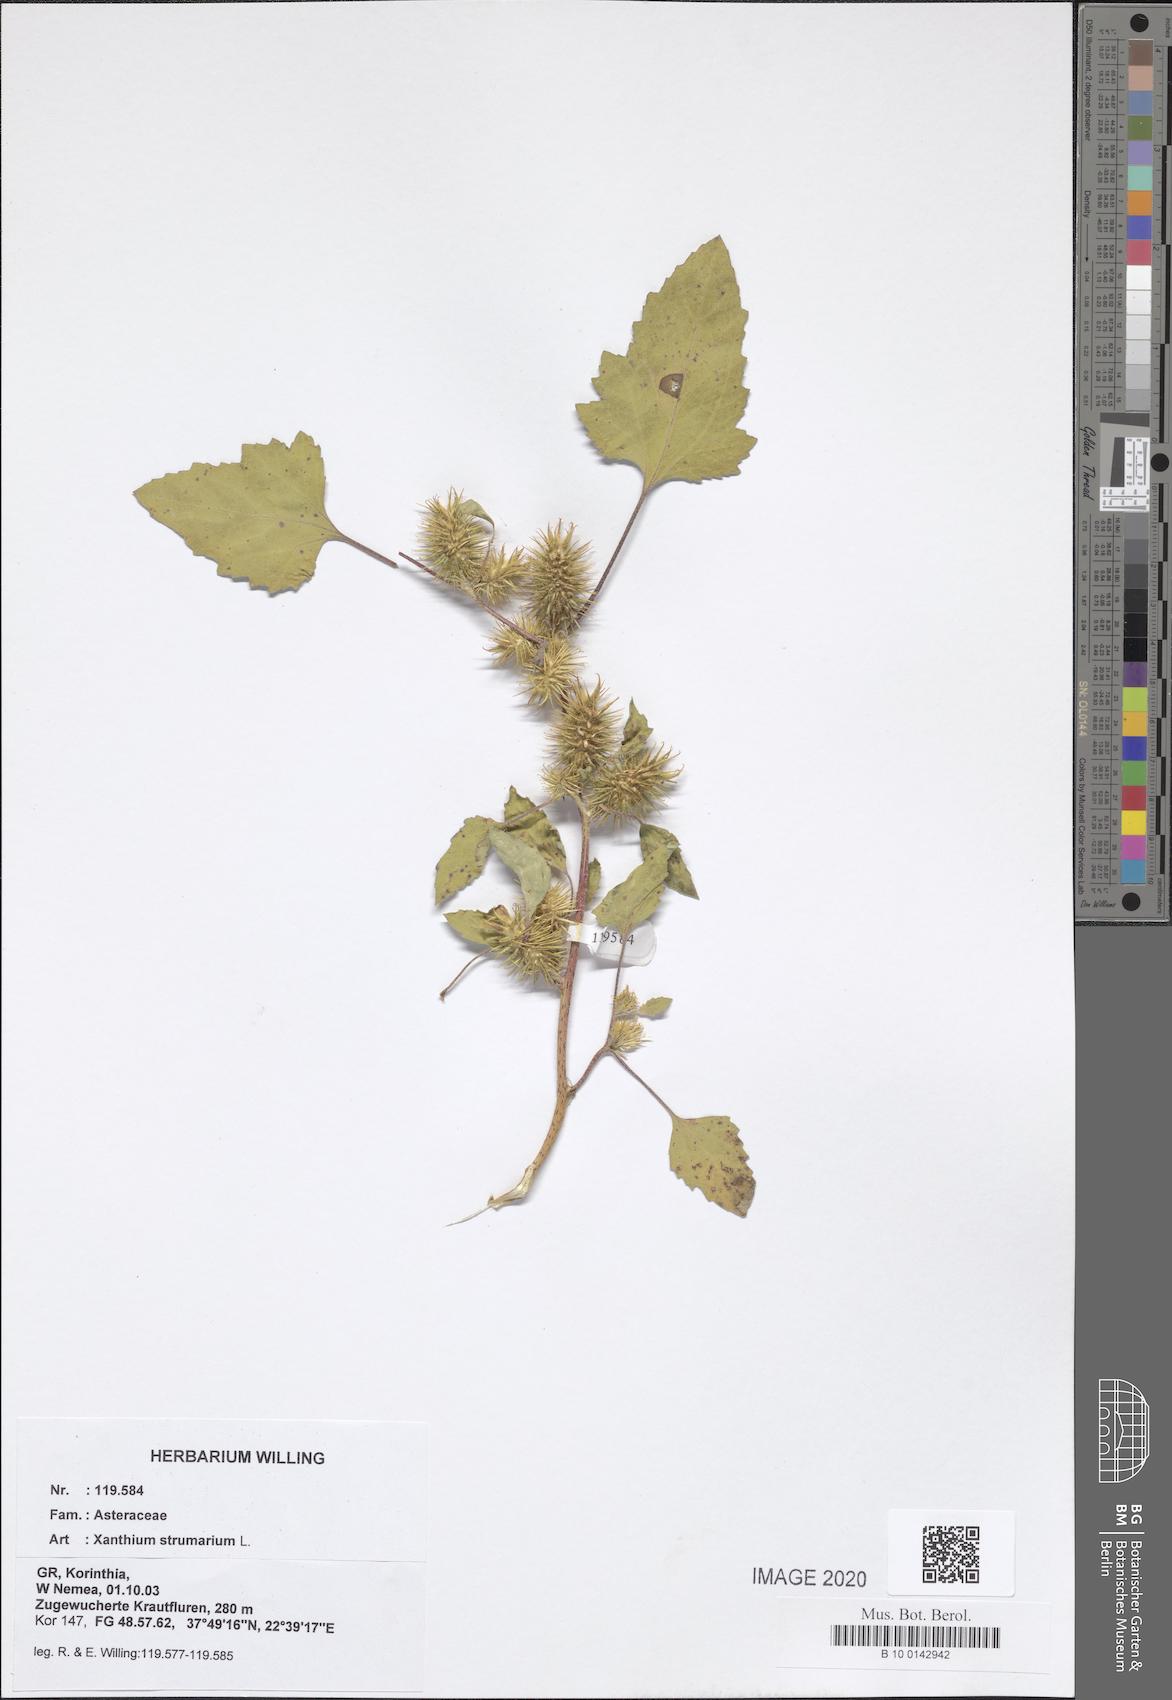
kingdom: Plantae
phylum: Tracheophyta
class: Magnoliopsida
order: Asterales
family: Asteraceae
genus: Xanthium
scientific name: Xanthium strumarium
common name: Rough cocklebur
